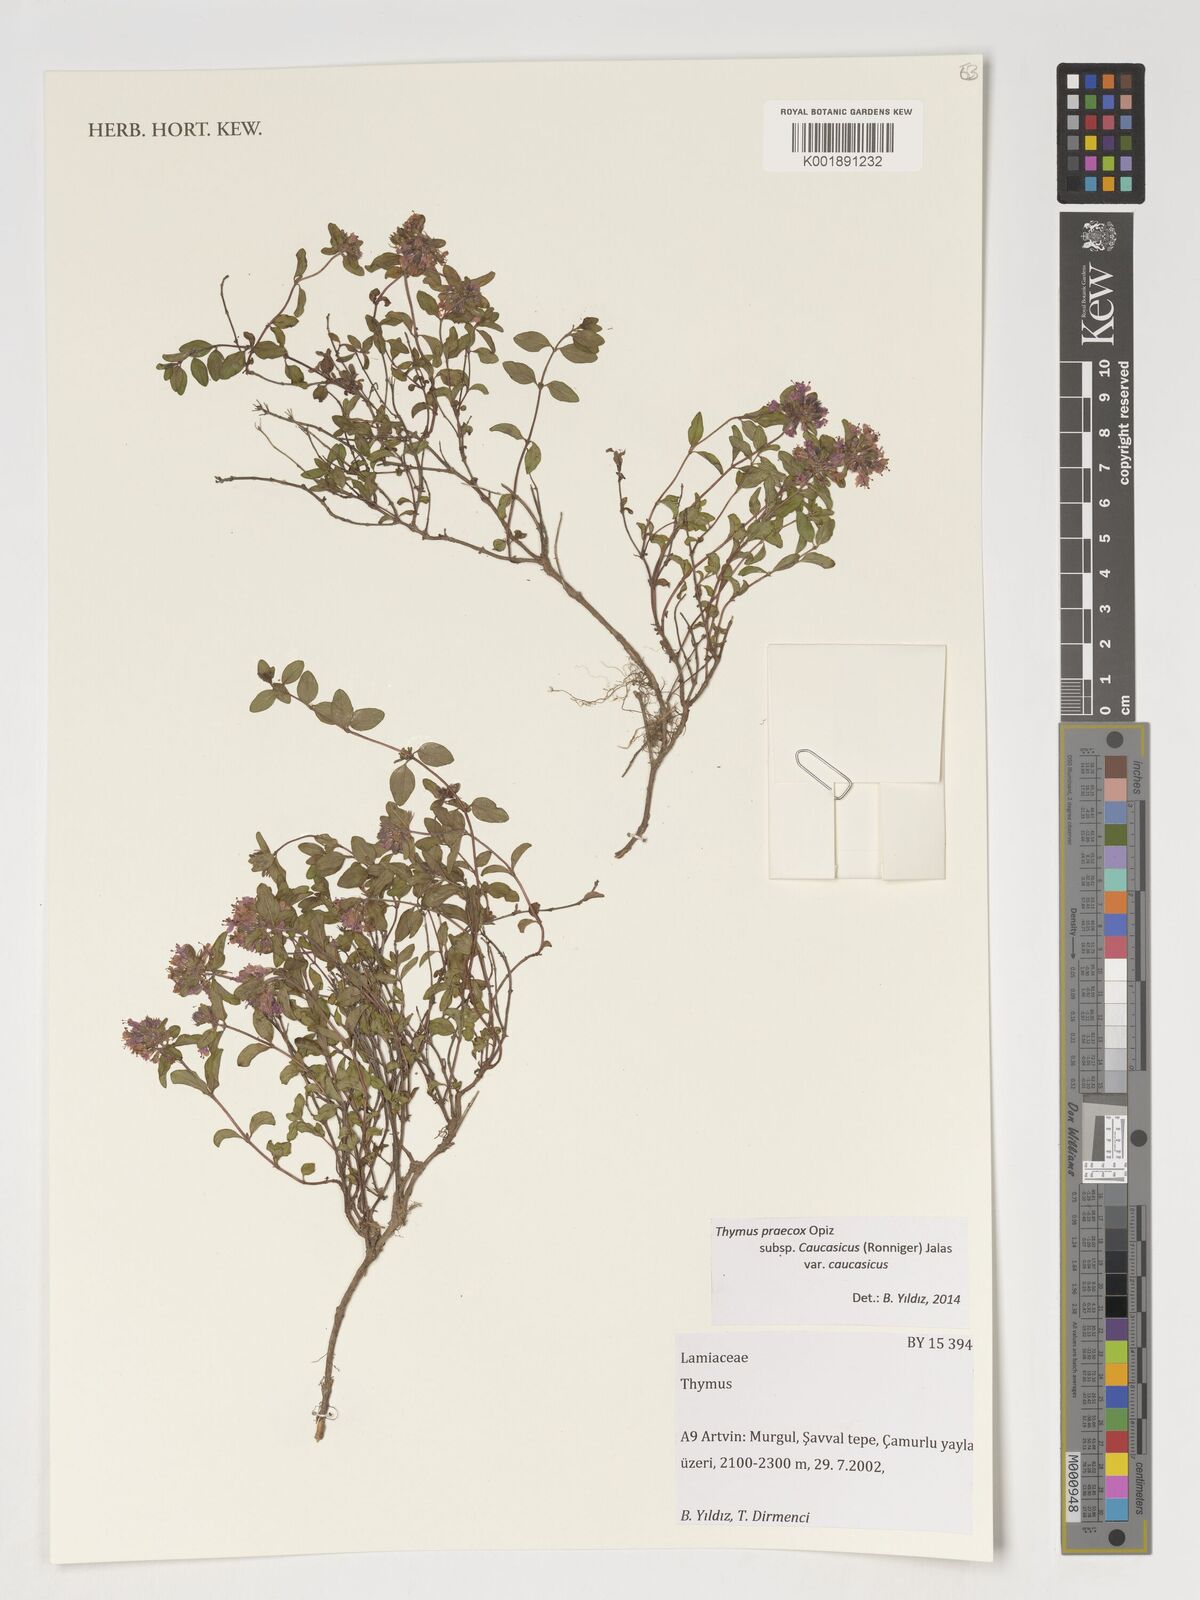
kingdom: Plantae
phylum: Tracheophyta
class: Magnoliopsida
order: Lamiales
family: Lamiaceae
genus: Thymus
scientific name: Thymus
